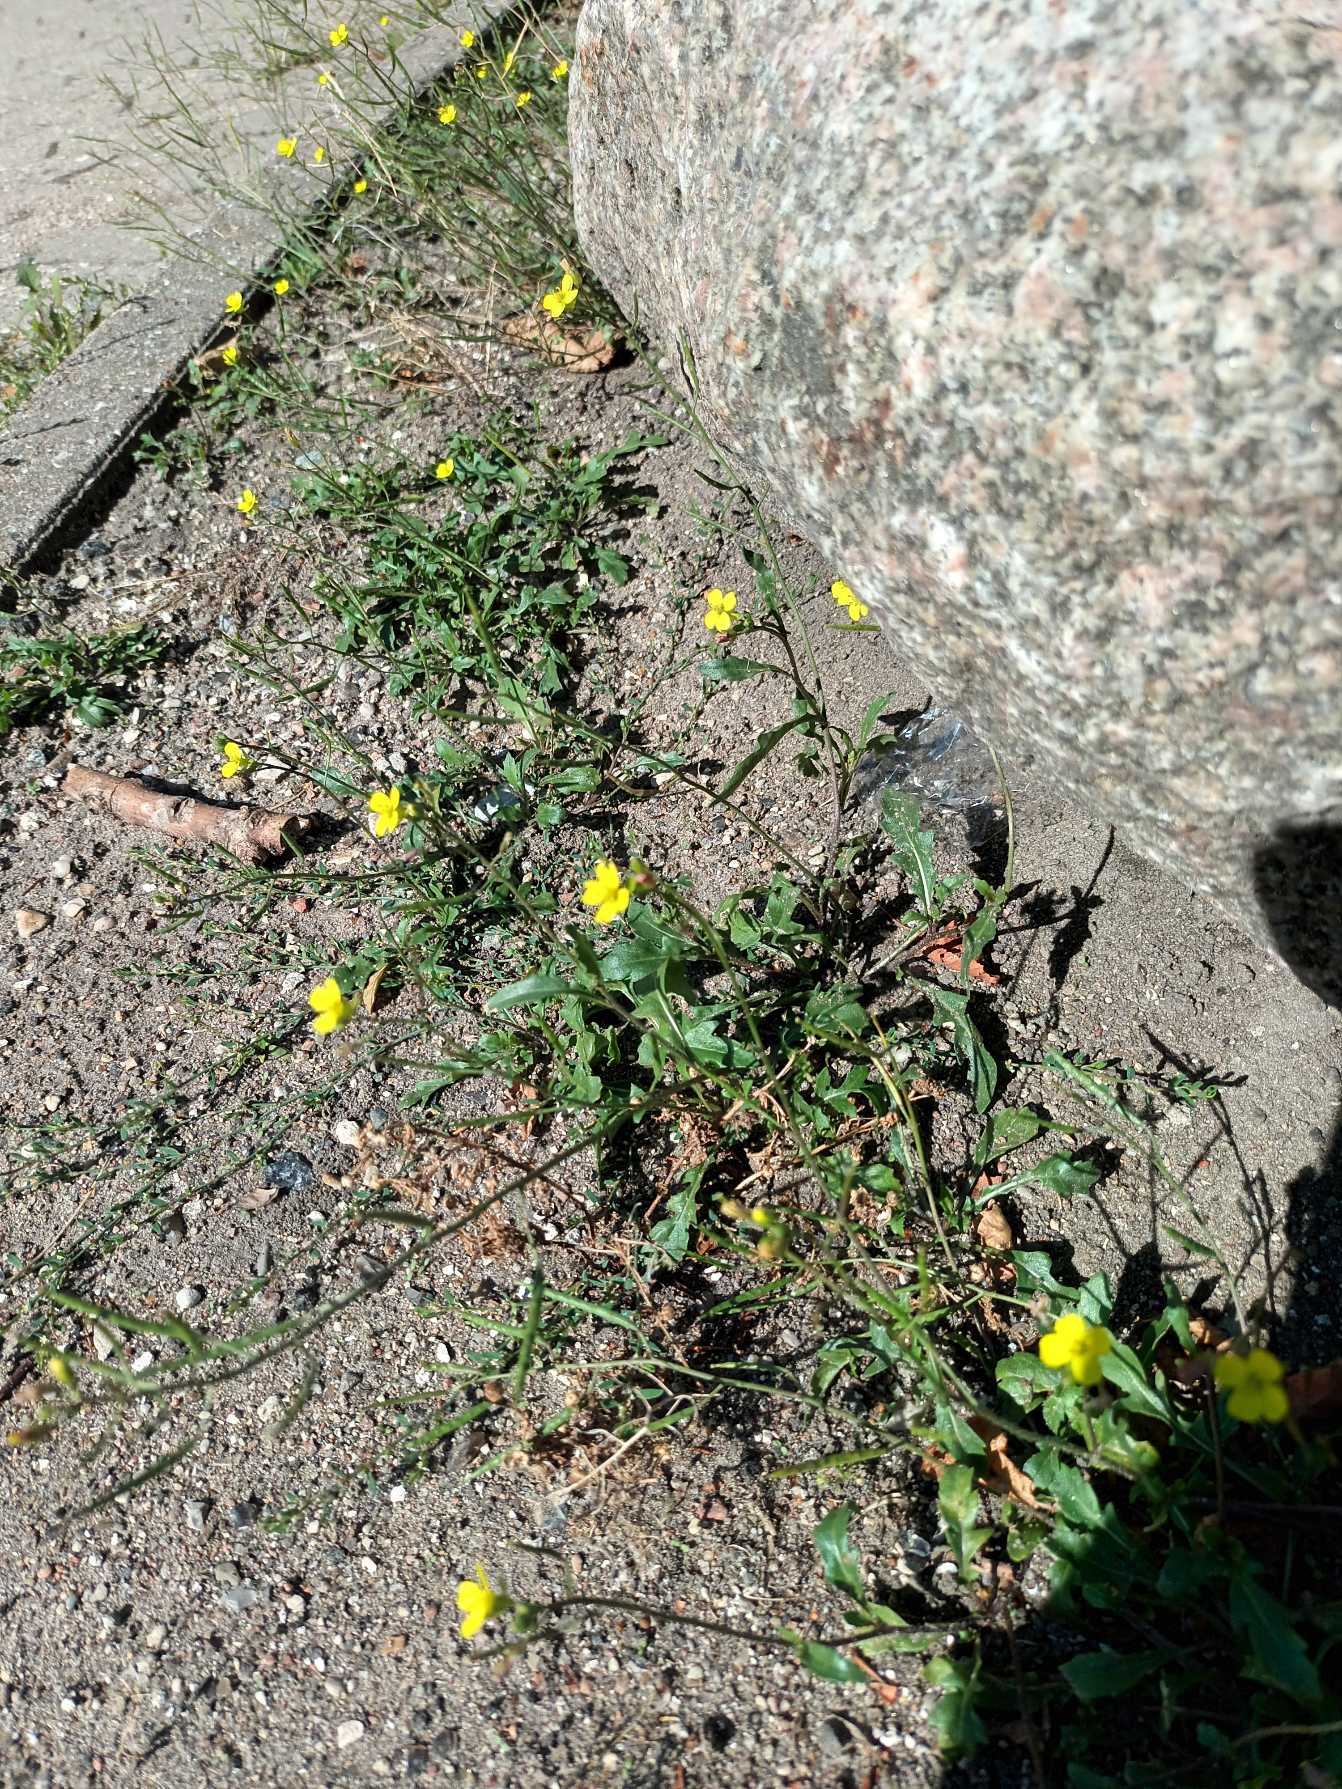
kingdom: Plantae
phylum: Tracheophyta
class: Magnoliopsida
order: Brassicales
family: Brassicaceae
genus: Diplotaxis
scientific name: Diplotaxis muralis
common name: Mursennep
